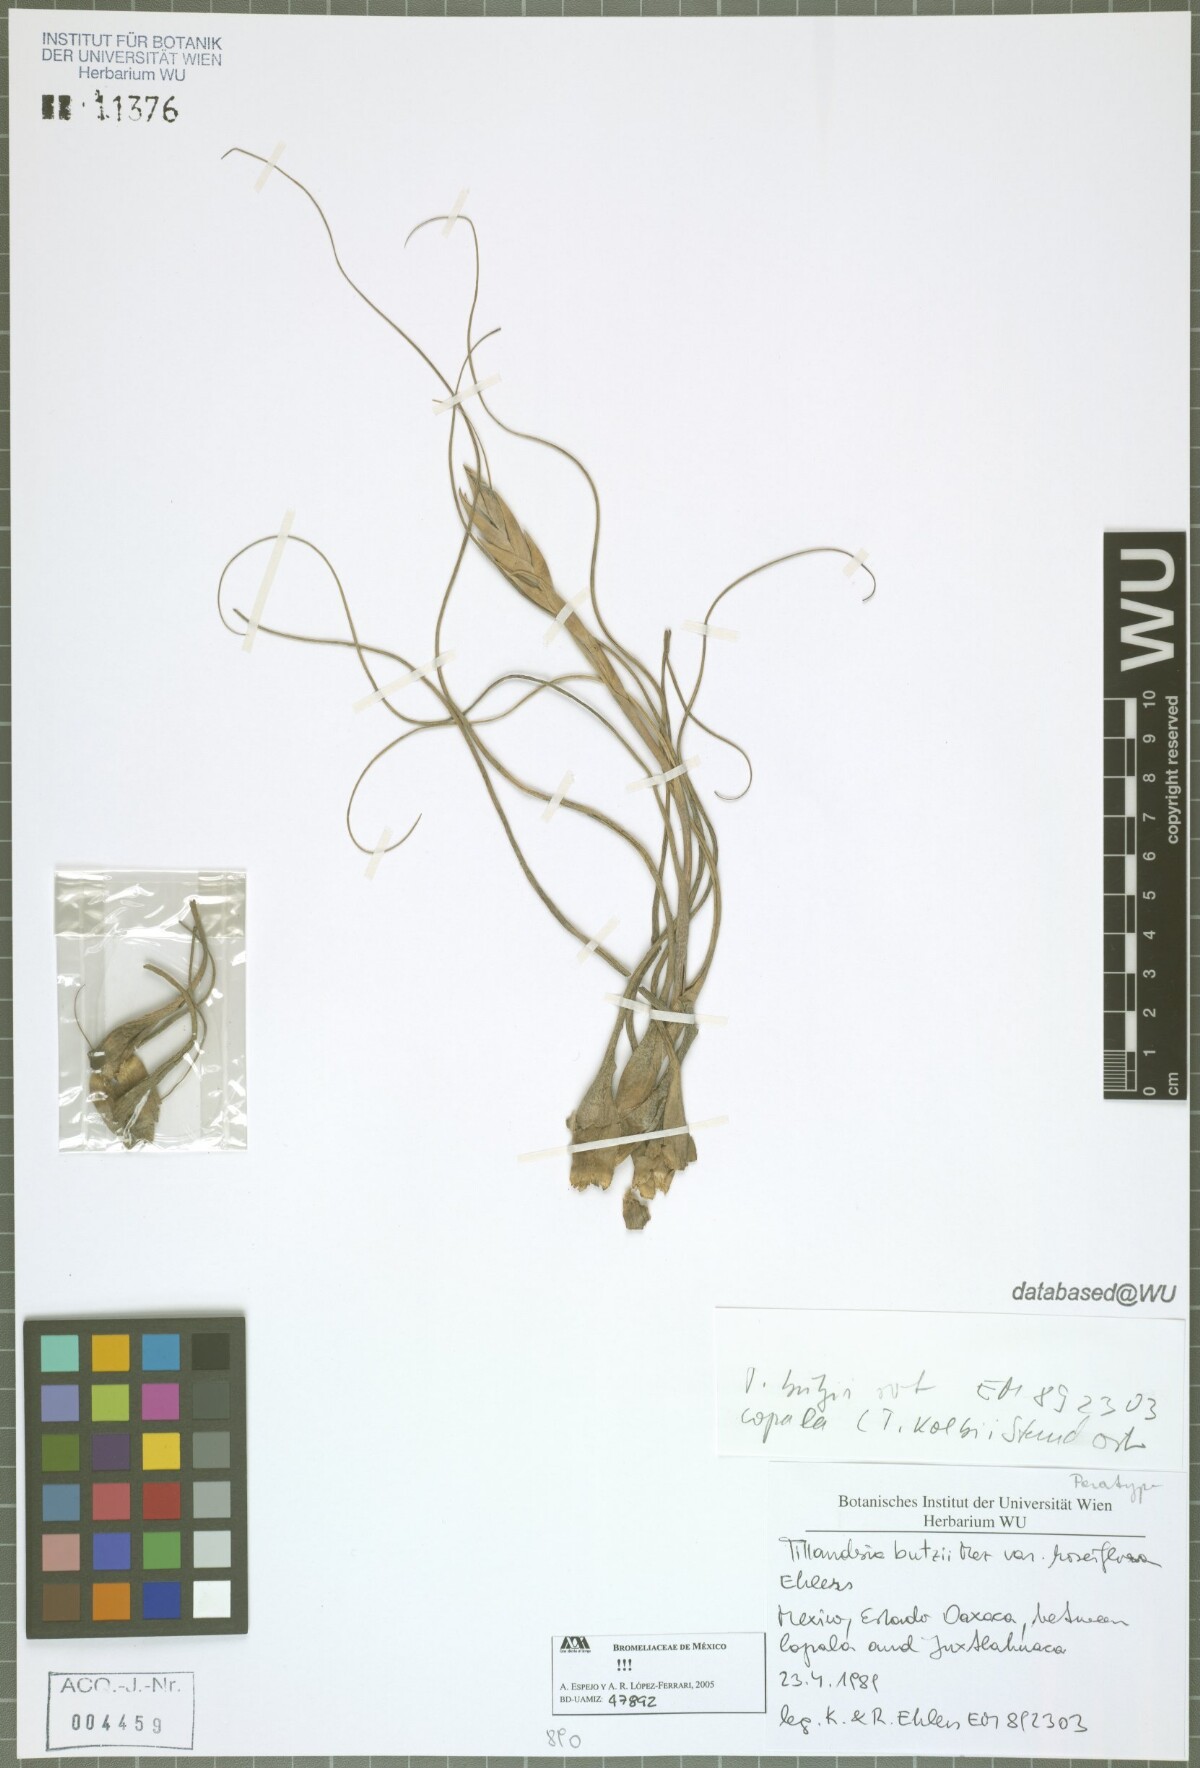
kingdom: Plantae
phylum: Tracheophyta
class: Liliopsida
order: Poales
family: Bromeliaceae
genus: Tillandsia
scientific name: Tillandsia butzii
